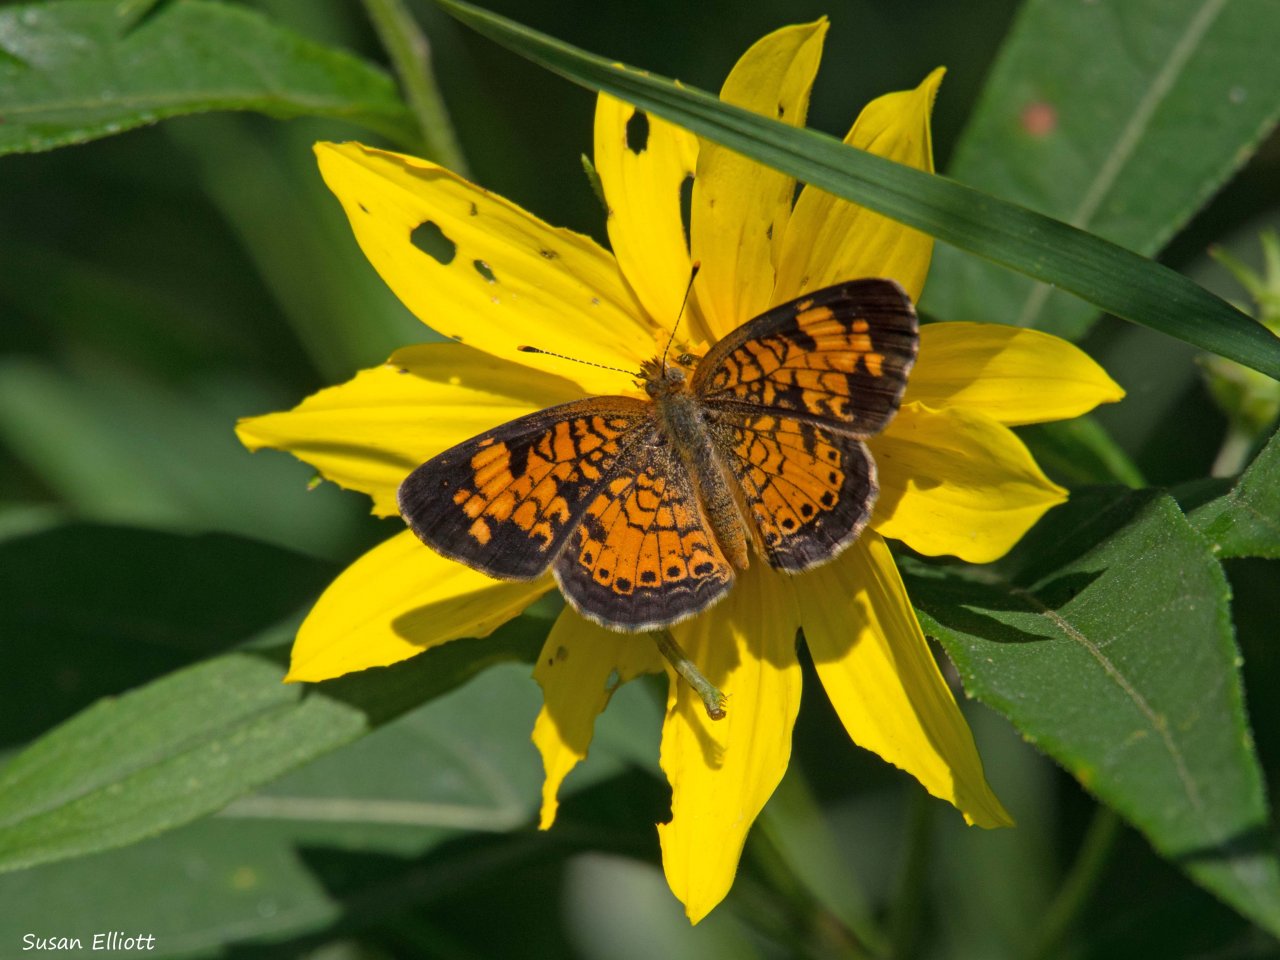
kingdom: Animalia
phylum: Arthropoda
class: Insecta
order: Lepidoptera
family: Nymphalidae
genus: Phyciodes
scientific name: Phyciodes
